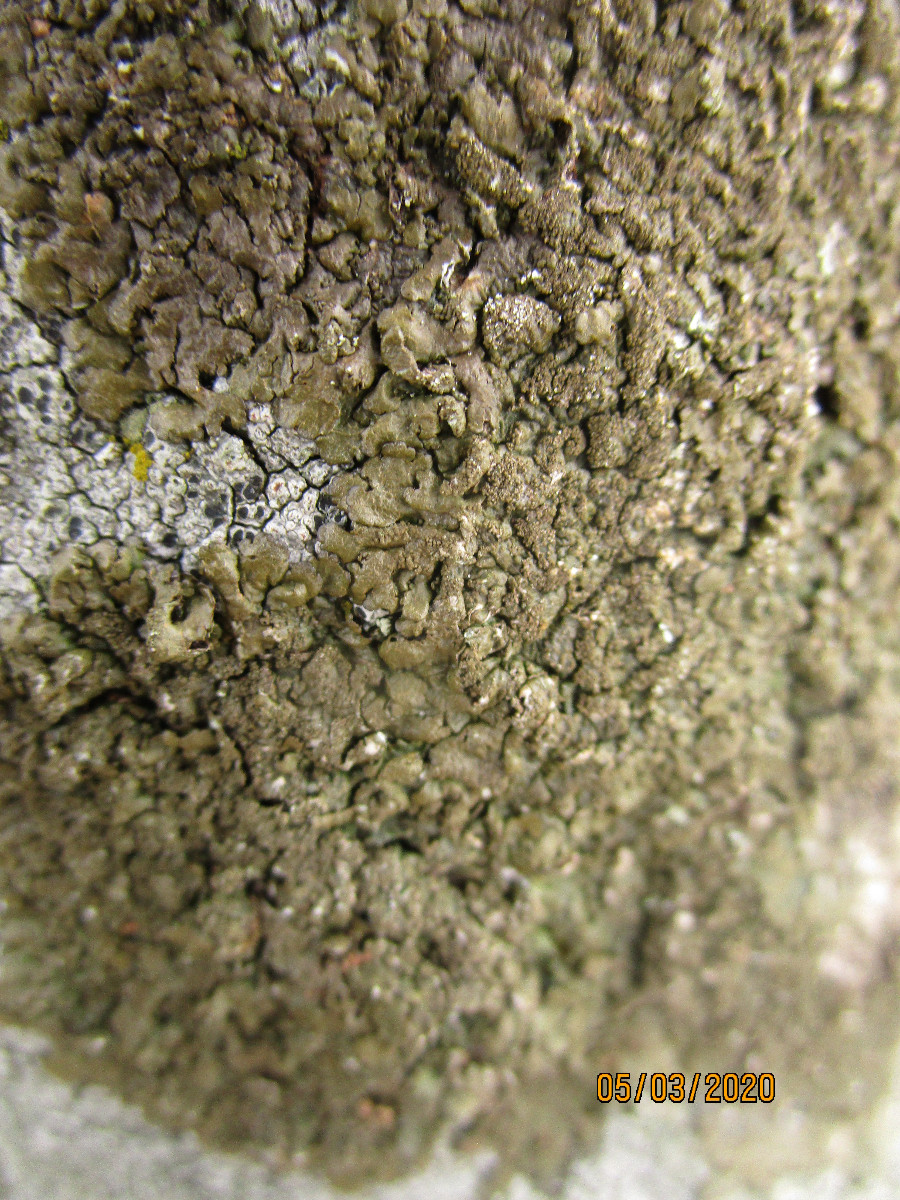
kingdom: Fungi
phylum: Ascomycota
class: Lecanoromycetes
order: Lecanorales
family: Parmeliaceae
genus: Xanthoparmelia
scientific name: Xanthoparmelia verruculifera
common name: småknoppet skållav
